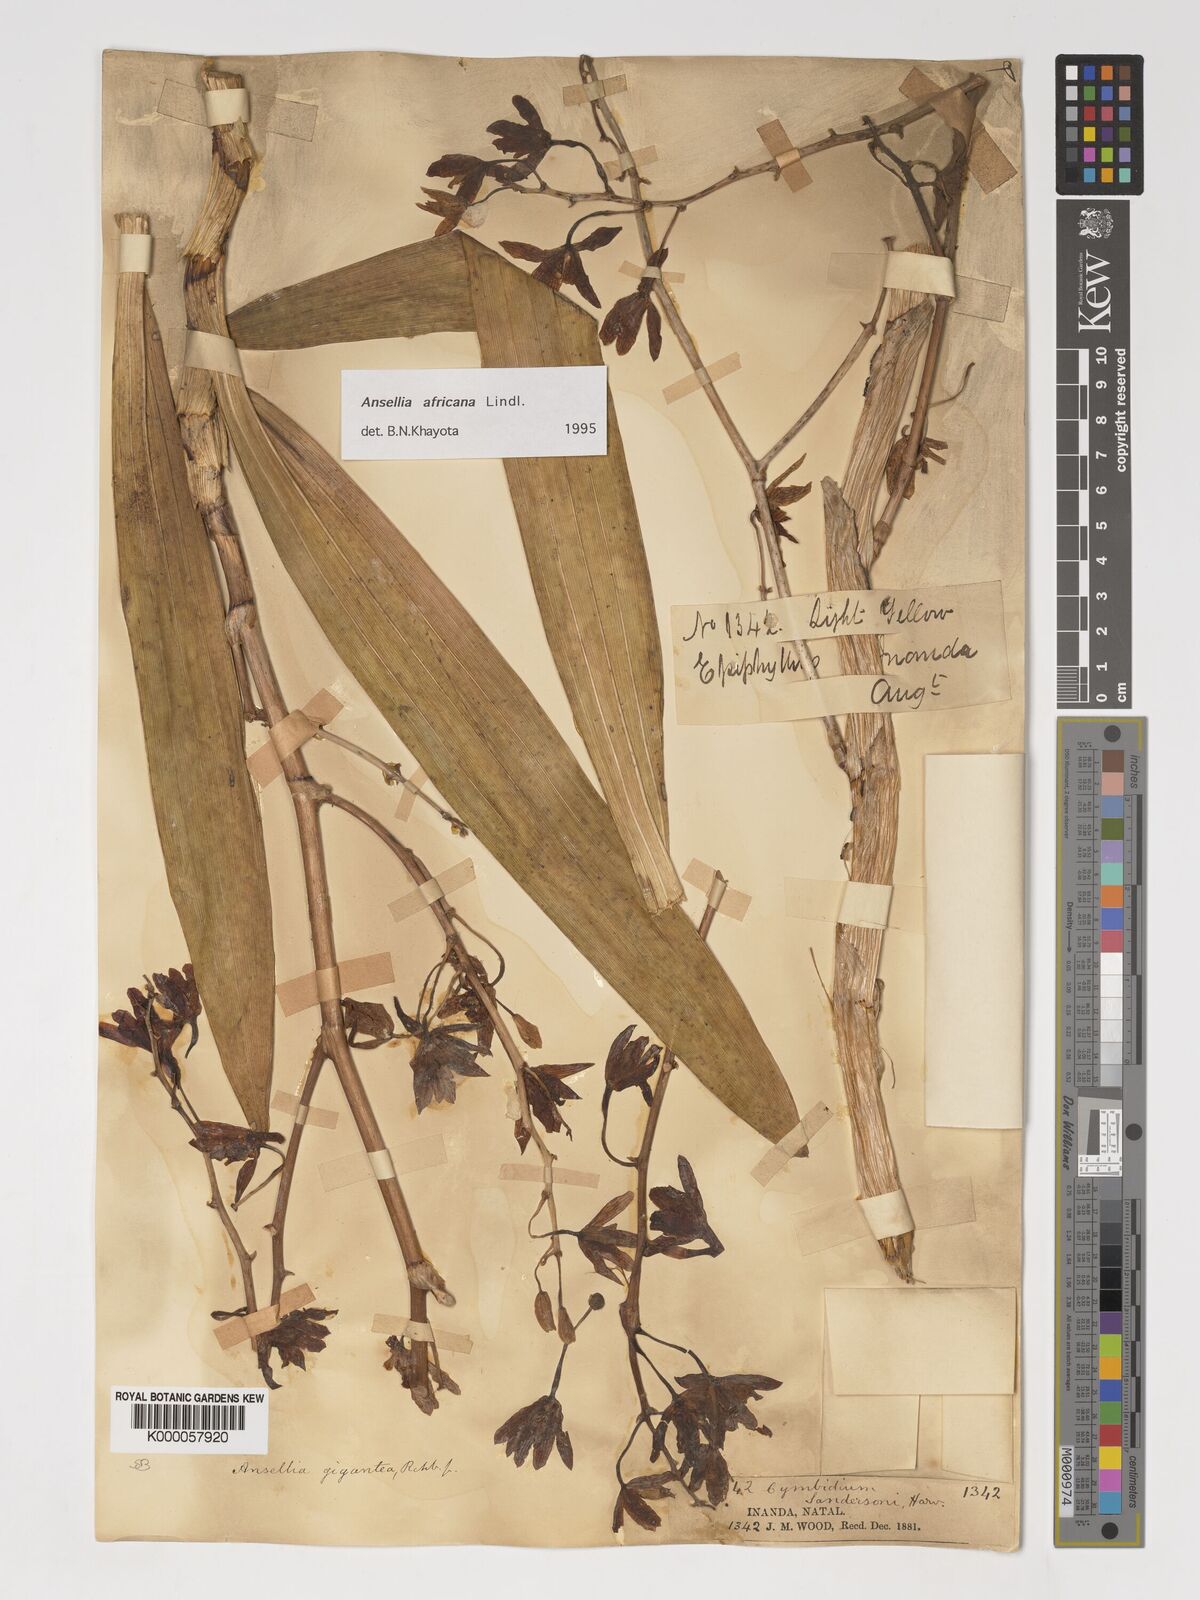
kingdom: Plantae
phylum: Tracheophyta
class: Liliopsida
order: Asparagales
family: Orchidaceae
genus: Ansellia
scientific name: Ansellia africana
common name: African ansellia
